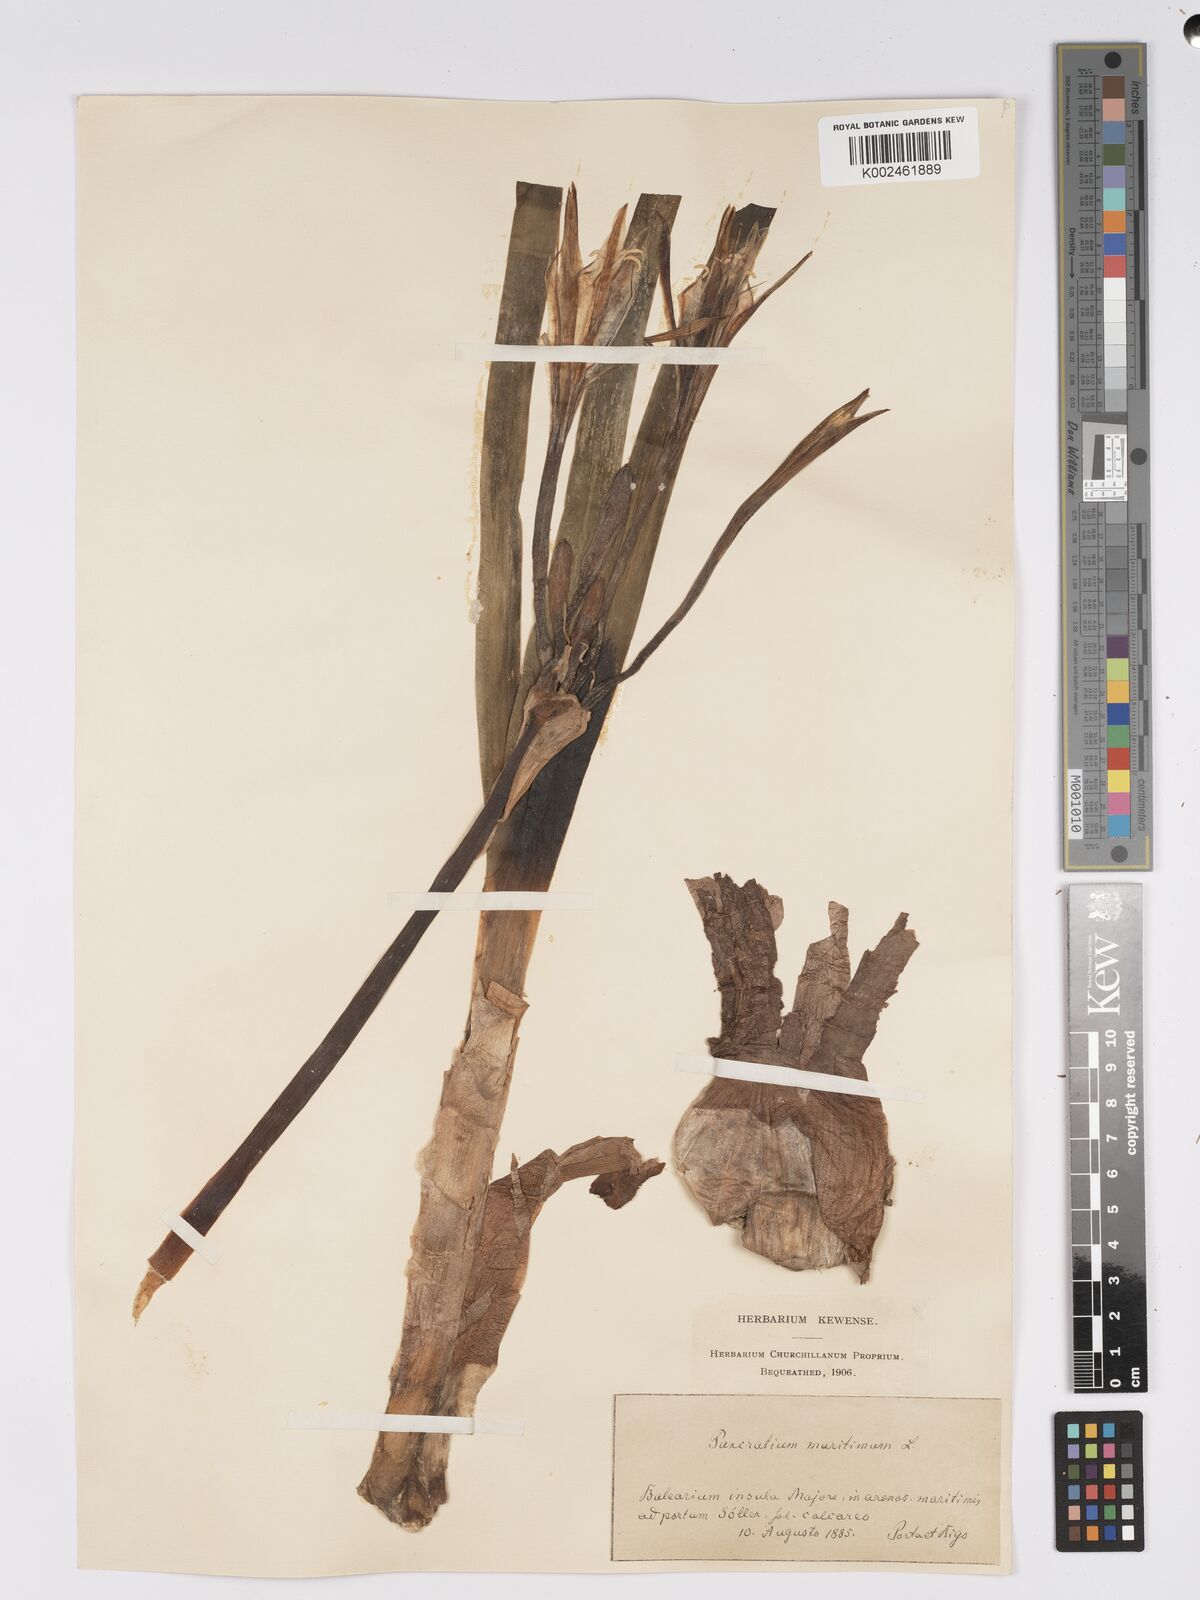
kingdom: Plantae
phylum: Tracheophyta
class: Liliopsida
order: Asparagales
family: Amaryllidaceae
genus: Pancratium
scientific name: Pancratium maritimum
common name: Sea-daffodil
